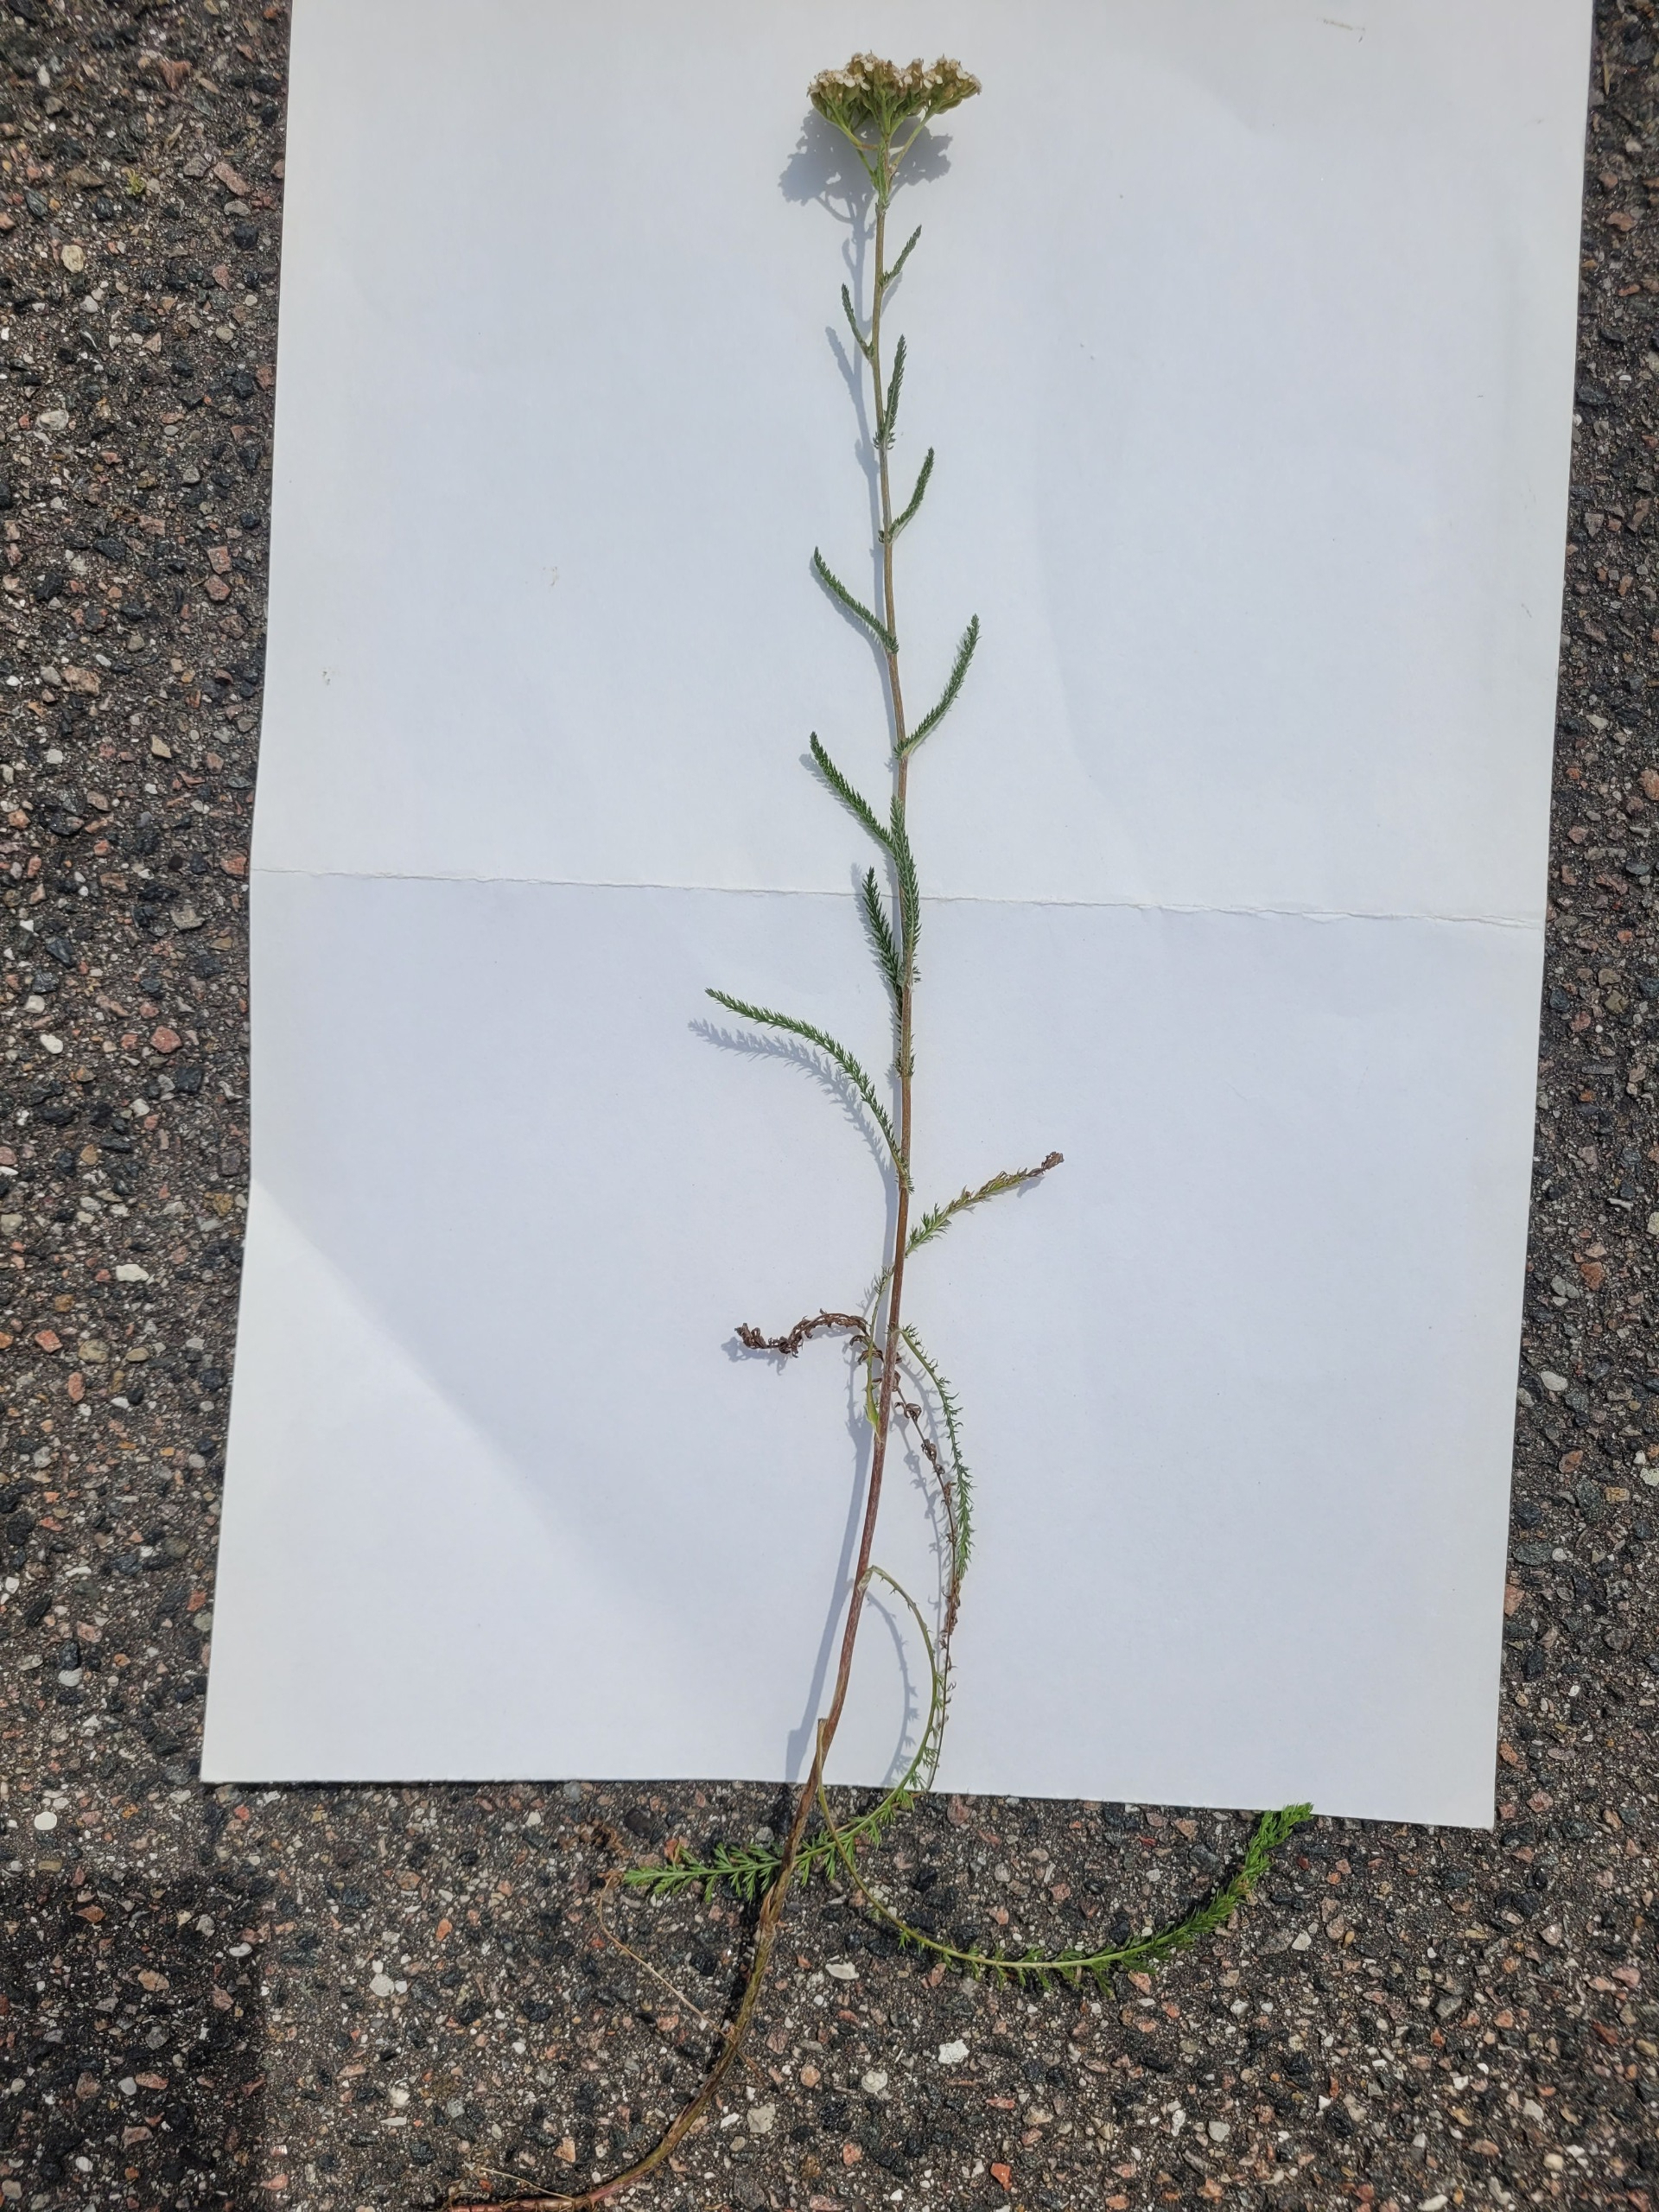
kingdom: Plantae
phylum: Tracheophyta
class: Magnoliopsida
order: Asterales
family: Asteraceae
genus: Achillea
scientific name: Achillea millefolium
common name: Almindelig røllike
